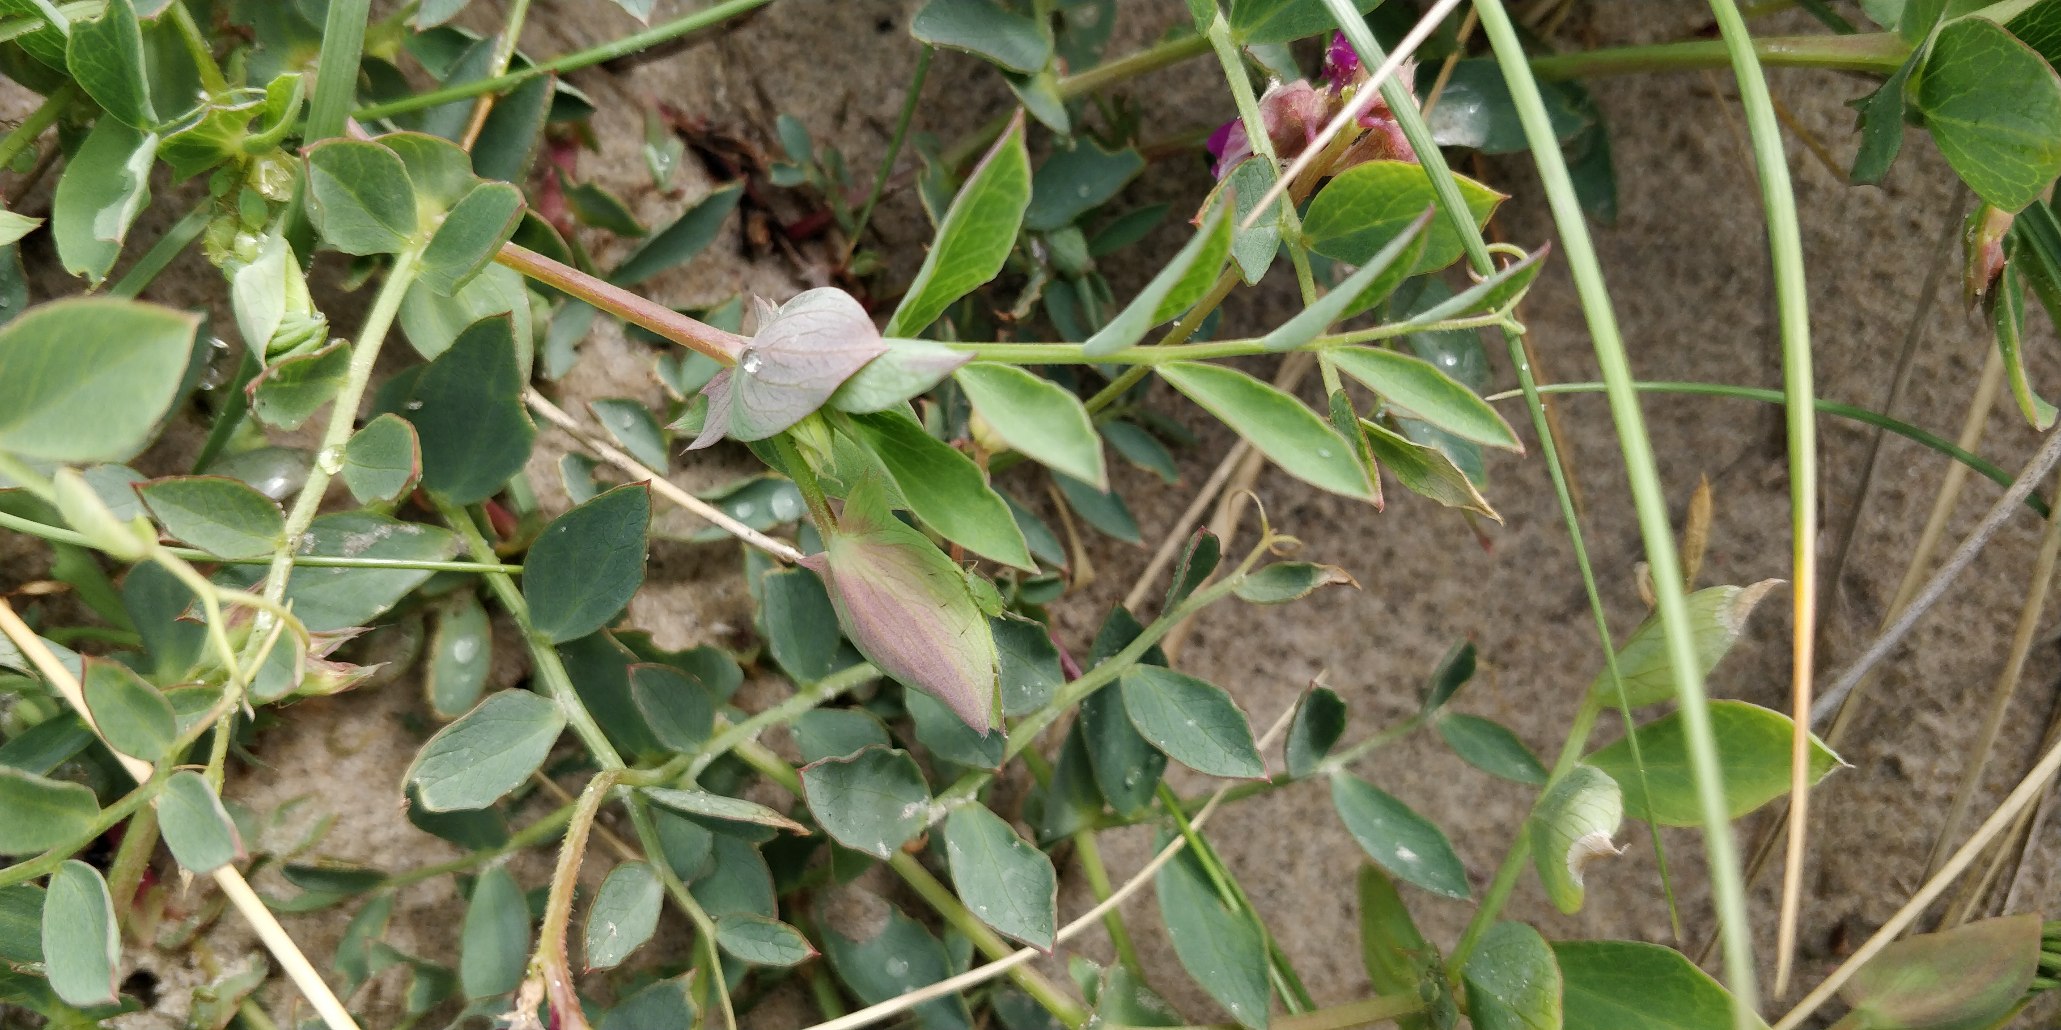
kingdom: Plantae
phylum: Tracheophyta
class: Magnoliopsida
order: Fabales
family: Fabaceae
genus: Lathyrus
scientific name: Lathyrus japonicus
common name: Klit-fladbælg
